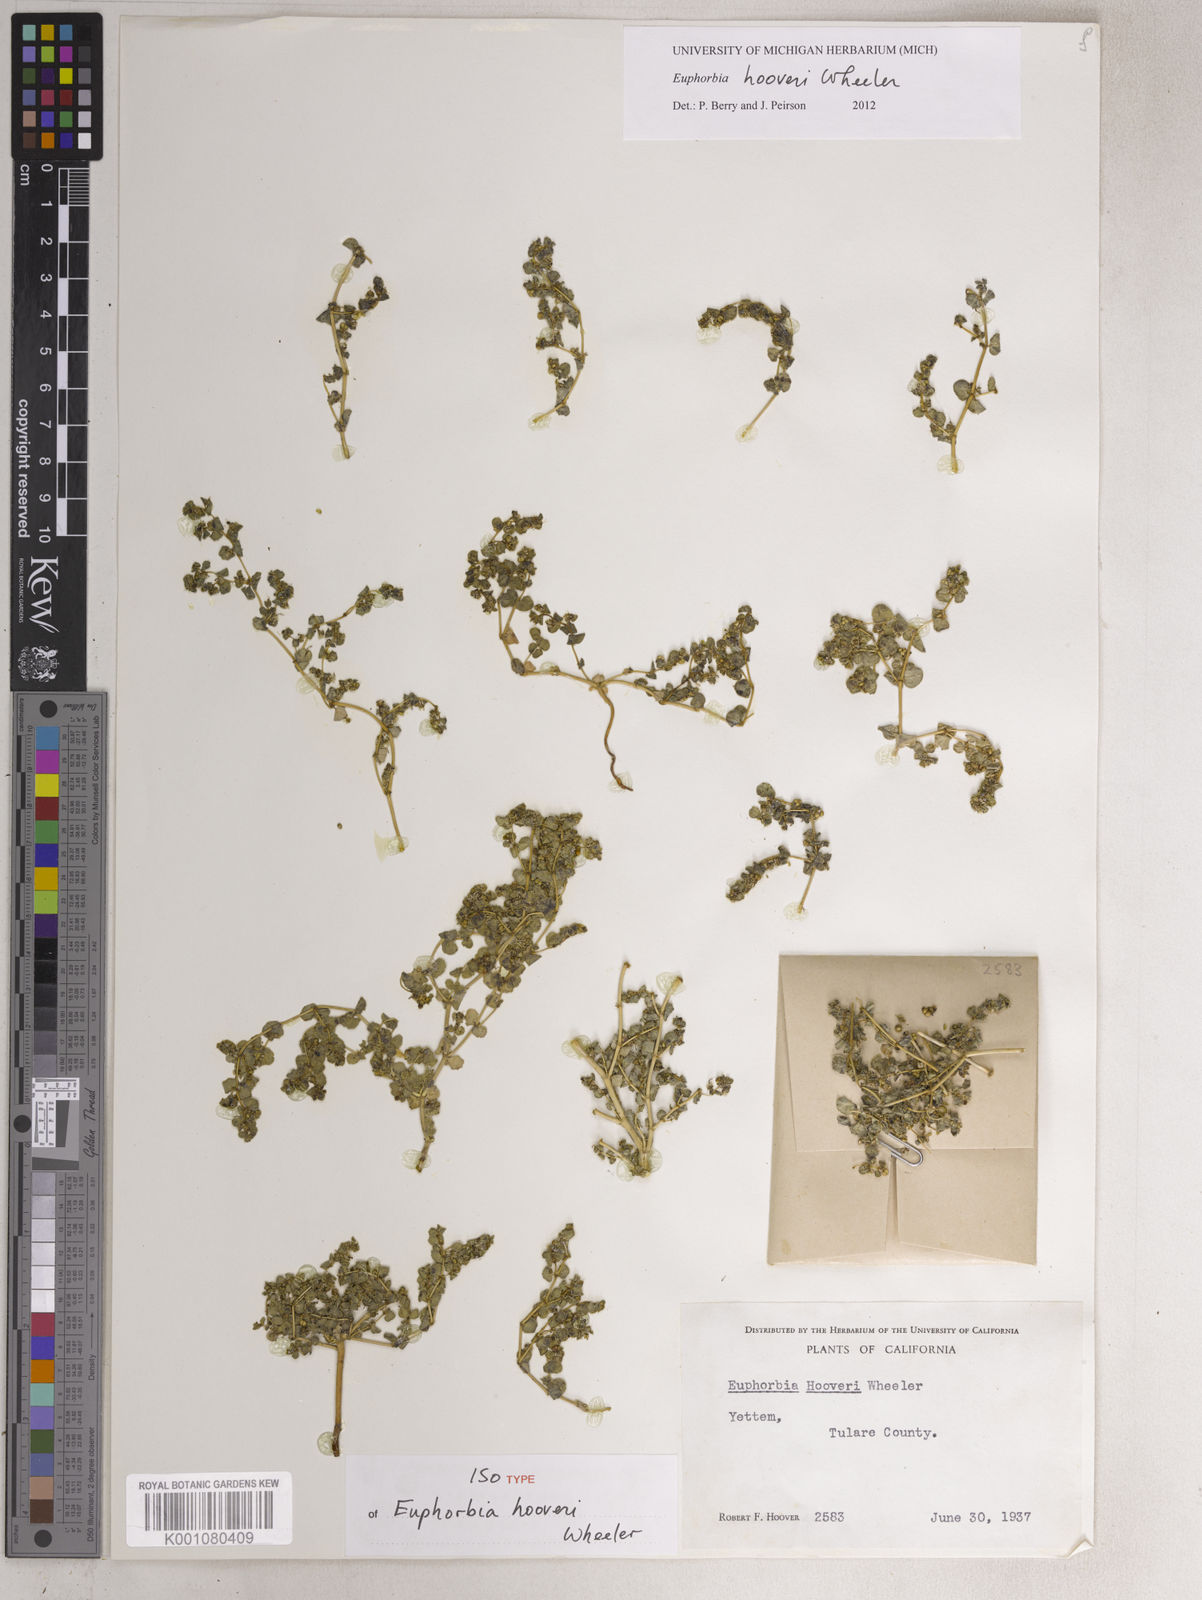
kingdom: Plantae
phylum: Tracheophyta
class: Magnoliopsida
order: Malpighiales
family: Euphorbiaceae
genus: Euphorbia
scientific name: Euphorbia hooveri
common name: Hoover's spurge
